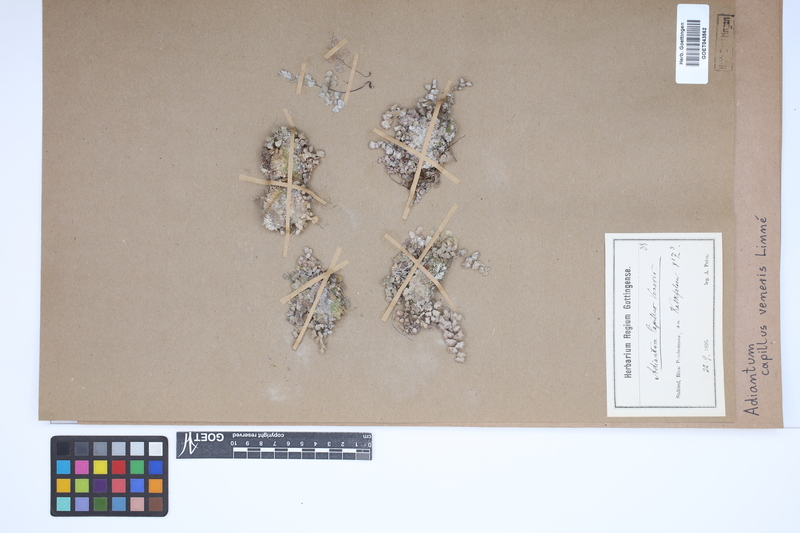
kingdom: Plantae
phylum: Tracheophyta
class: Polypodiopsida
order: Polypodiales
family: Pteridaceae
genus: Adiantum
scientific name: Adiantum capillus-veneris
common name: Maidenhair fern
